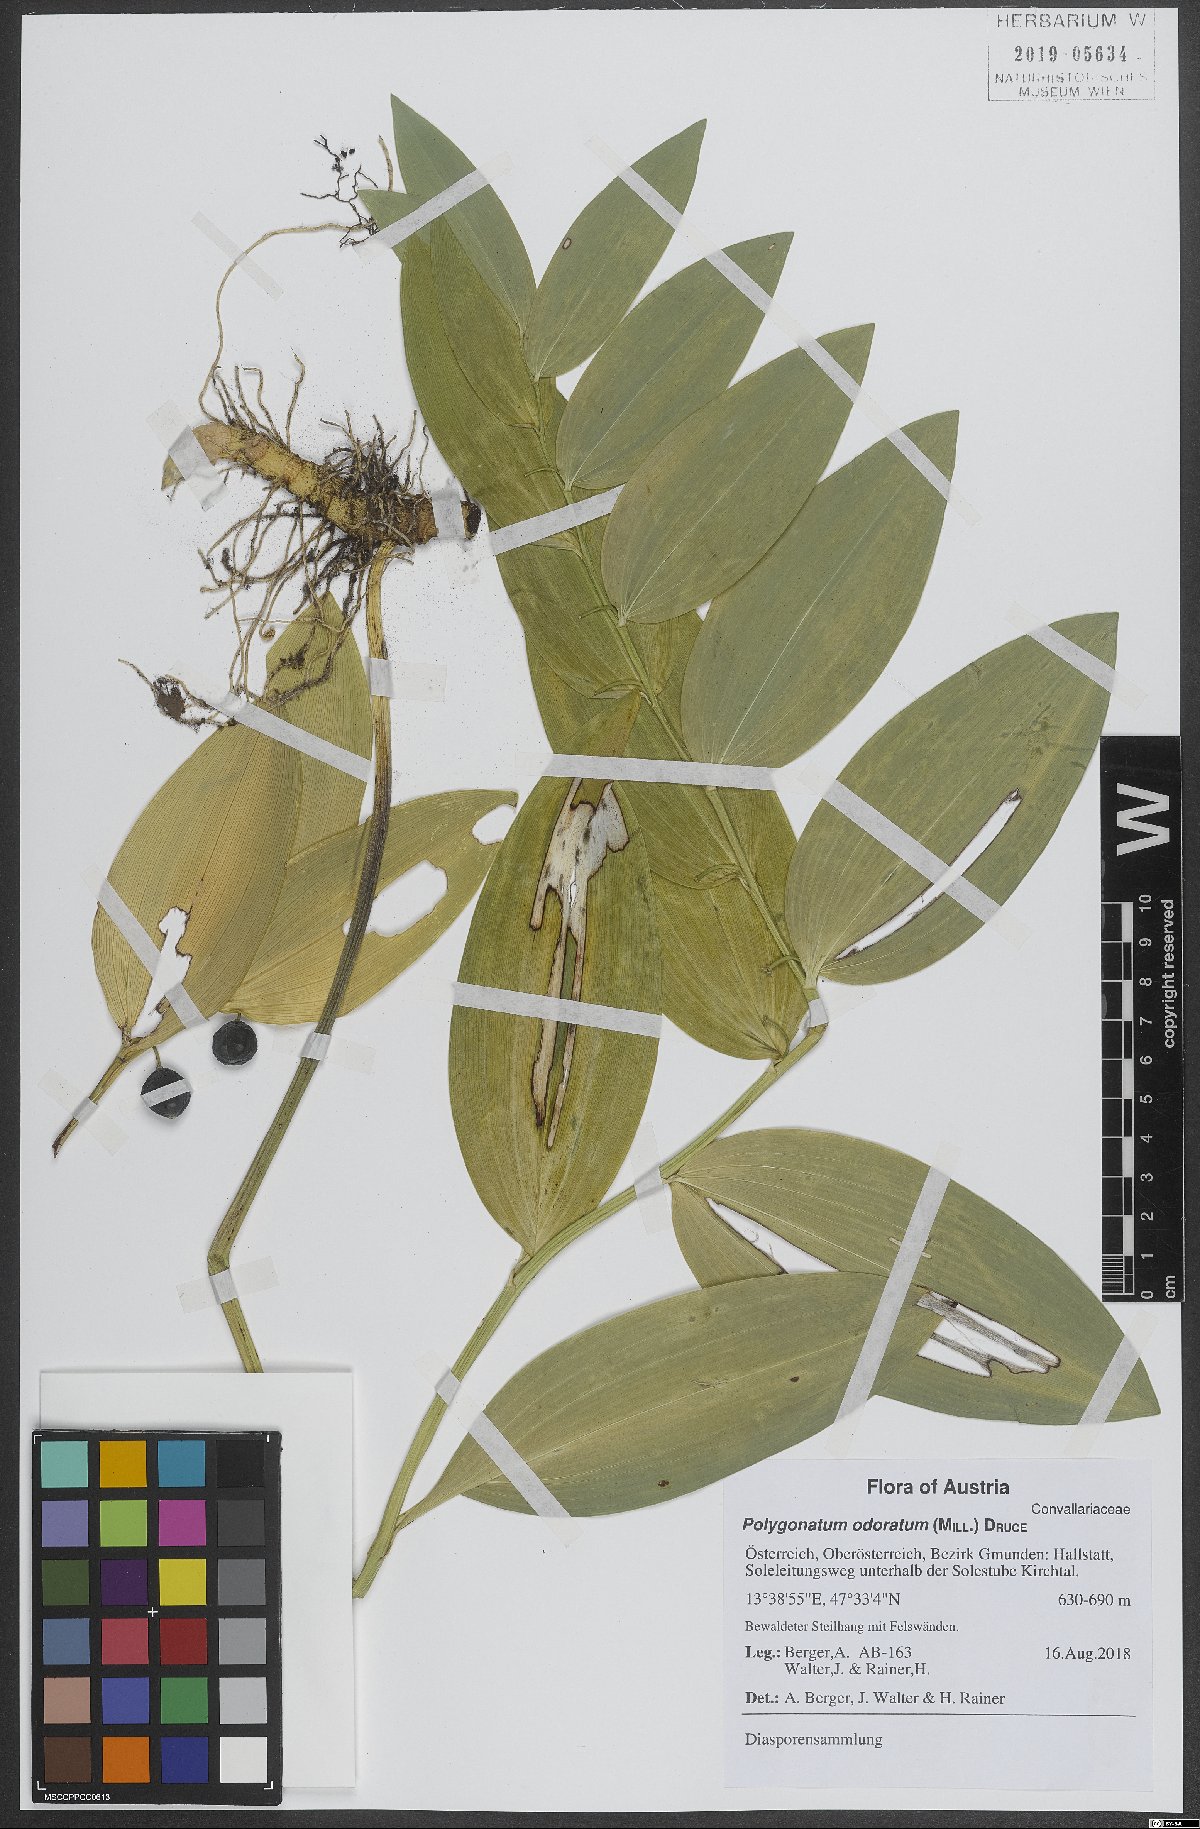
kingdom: Plantae
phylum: Tracheophyta
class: Liliopsida
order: Asparagales
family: Asparagaceae
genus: Polygonatum
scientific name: Polygonatum odoratum
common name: Angular solomon's-seal
